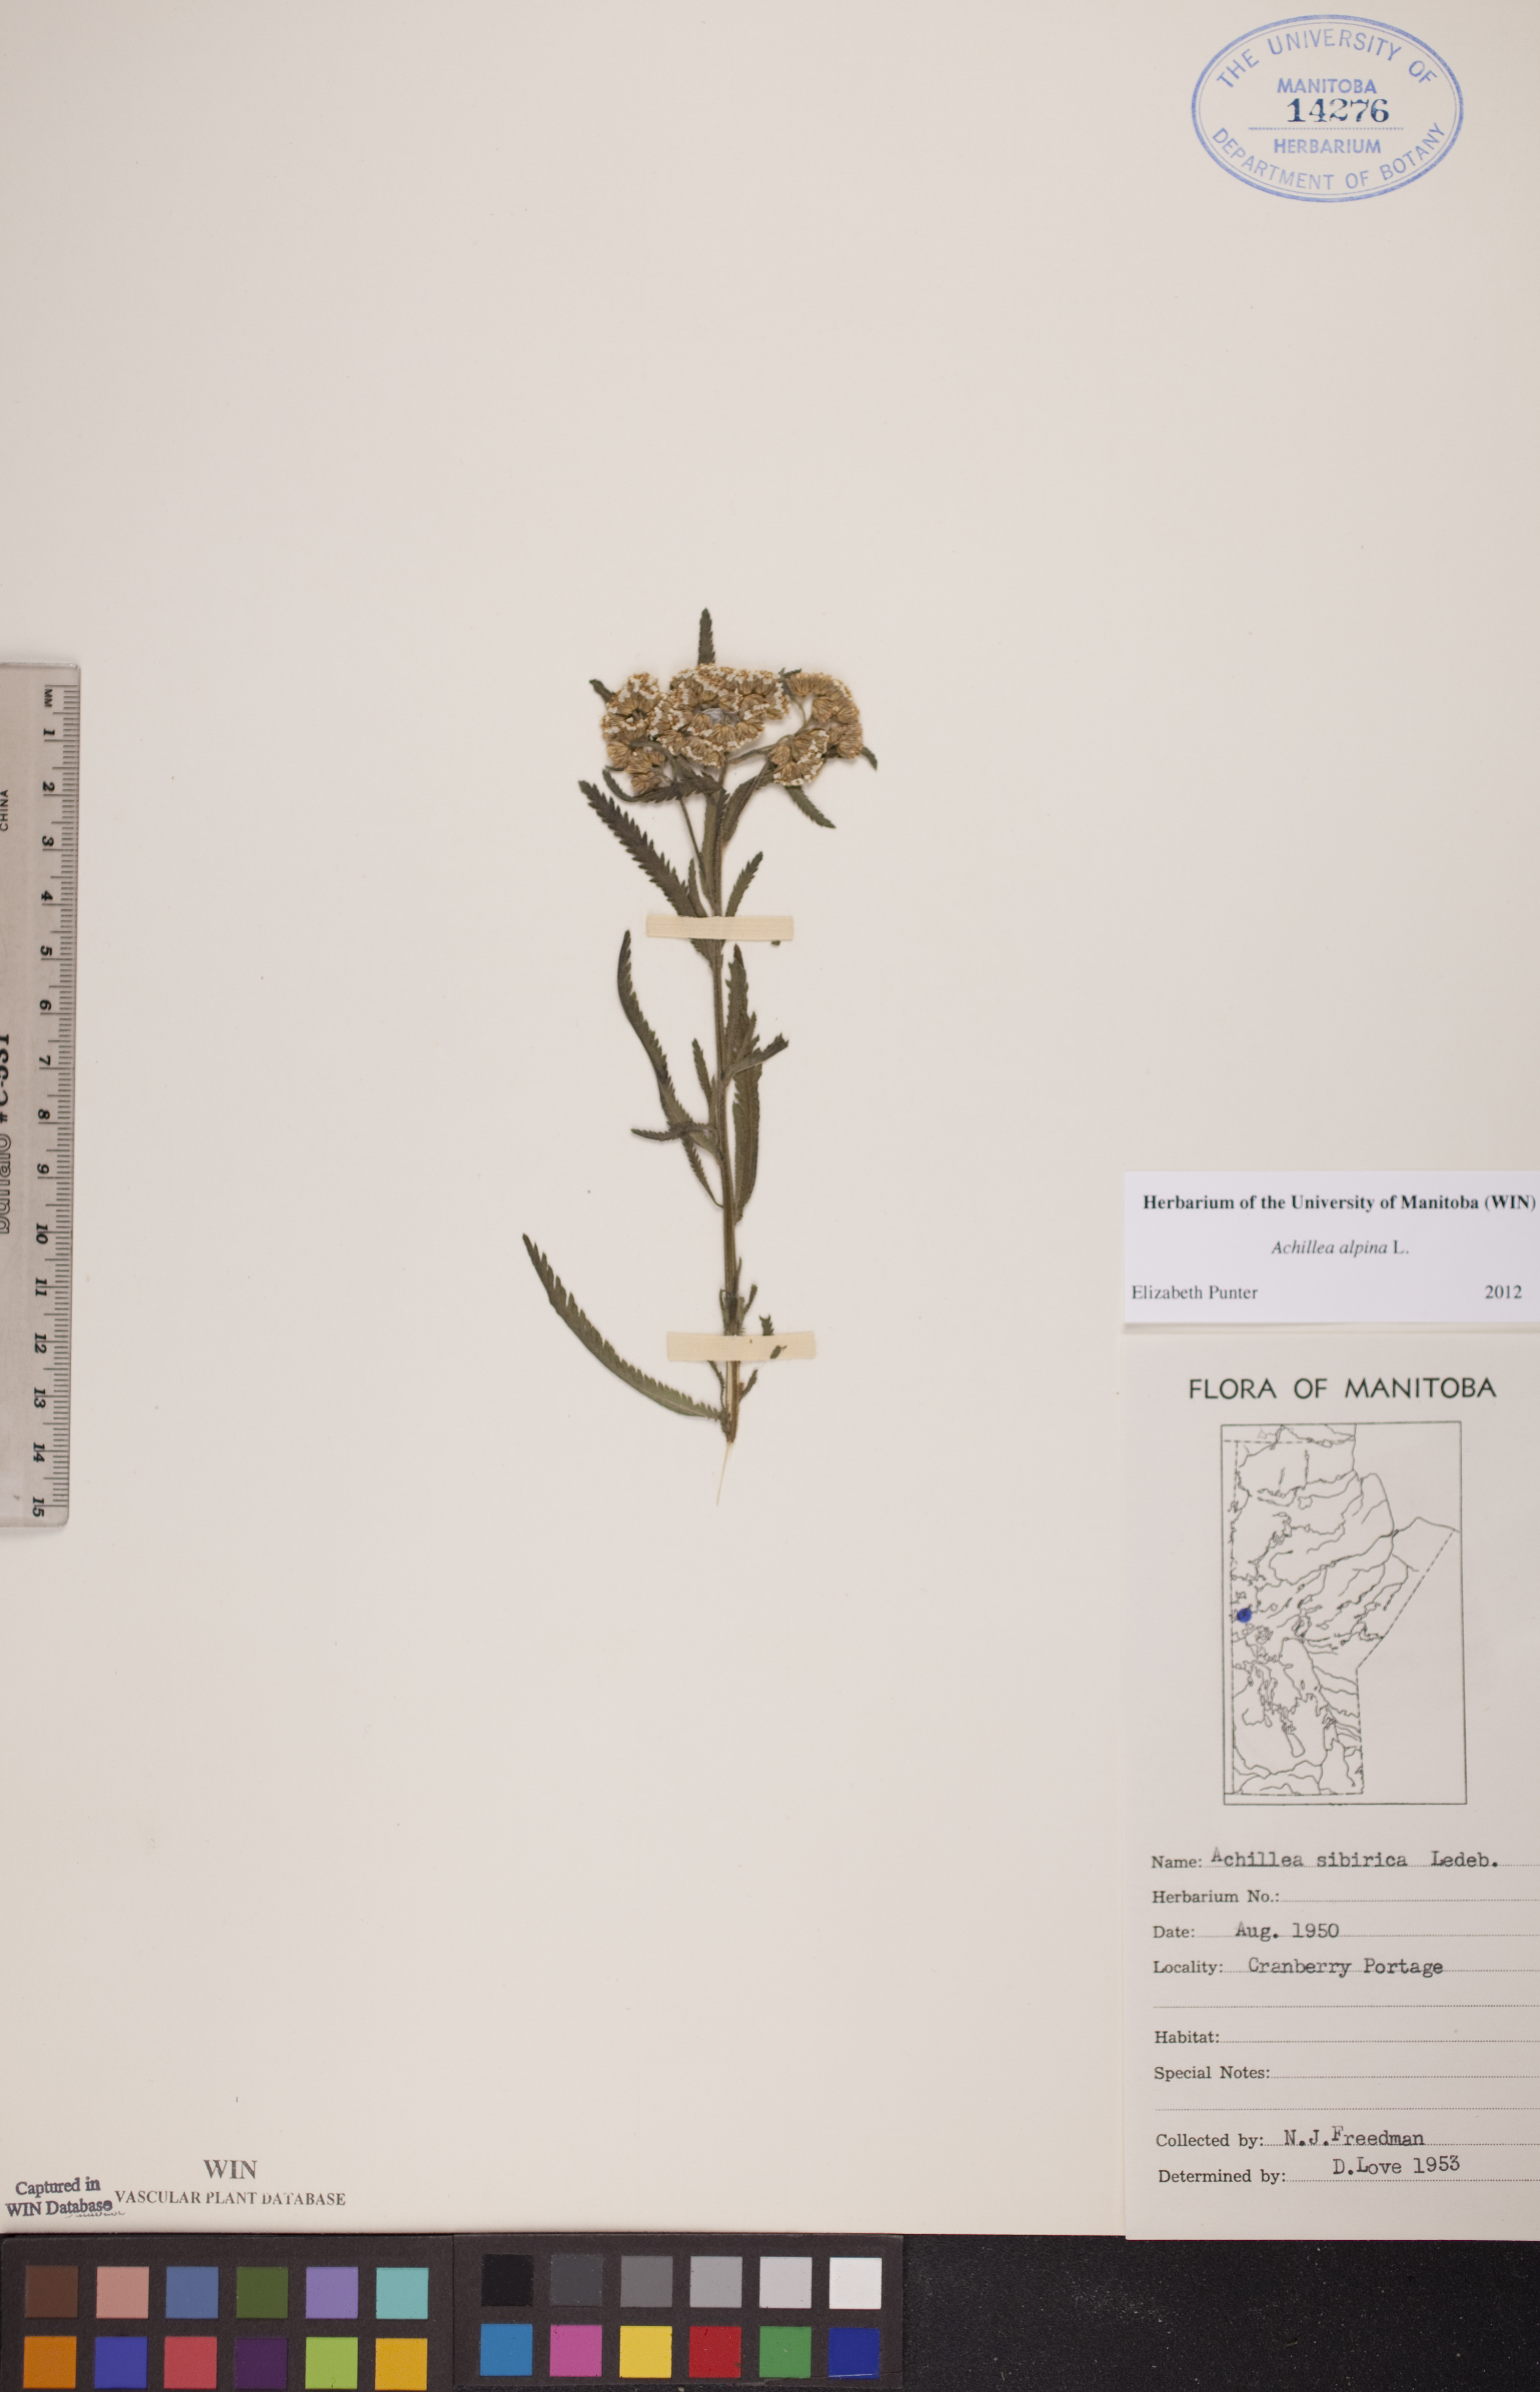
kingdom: Plantae
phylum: Tracheophyta
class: Magnoliopsida
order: Asterales
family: Asteraceae
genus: Achillea
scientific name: Achillea alpina
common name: Siberian yarrow
